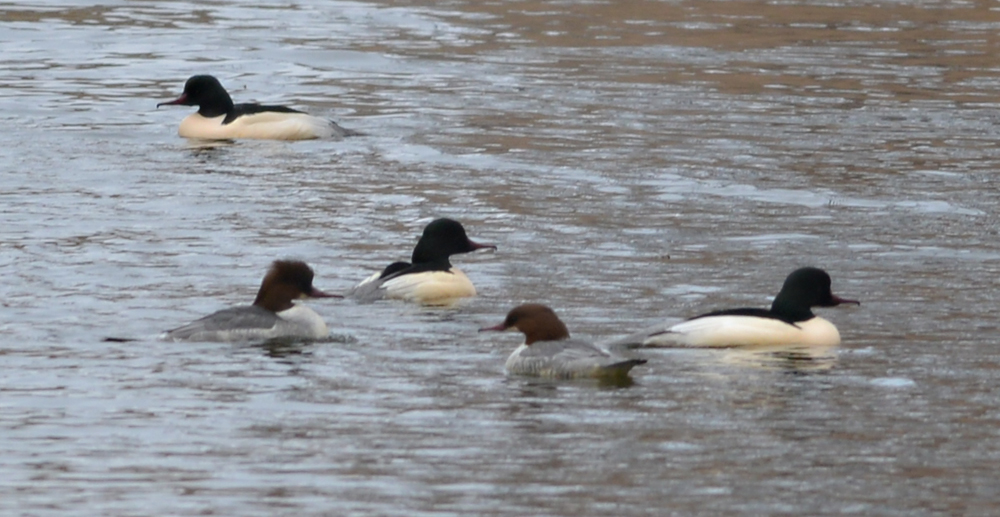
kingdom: Animalia
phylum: Chordata
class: Aves
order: Anseriformes
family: Anatidae
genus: Mergus
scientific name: Mergus merganser
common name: Common merganser
